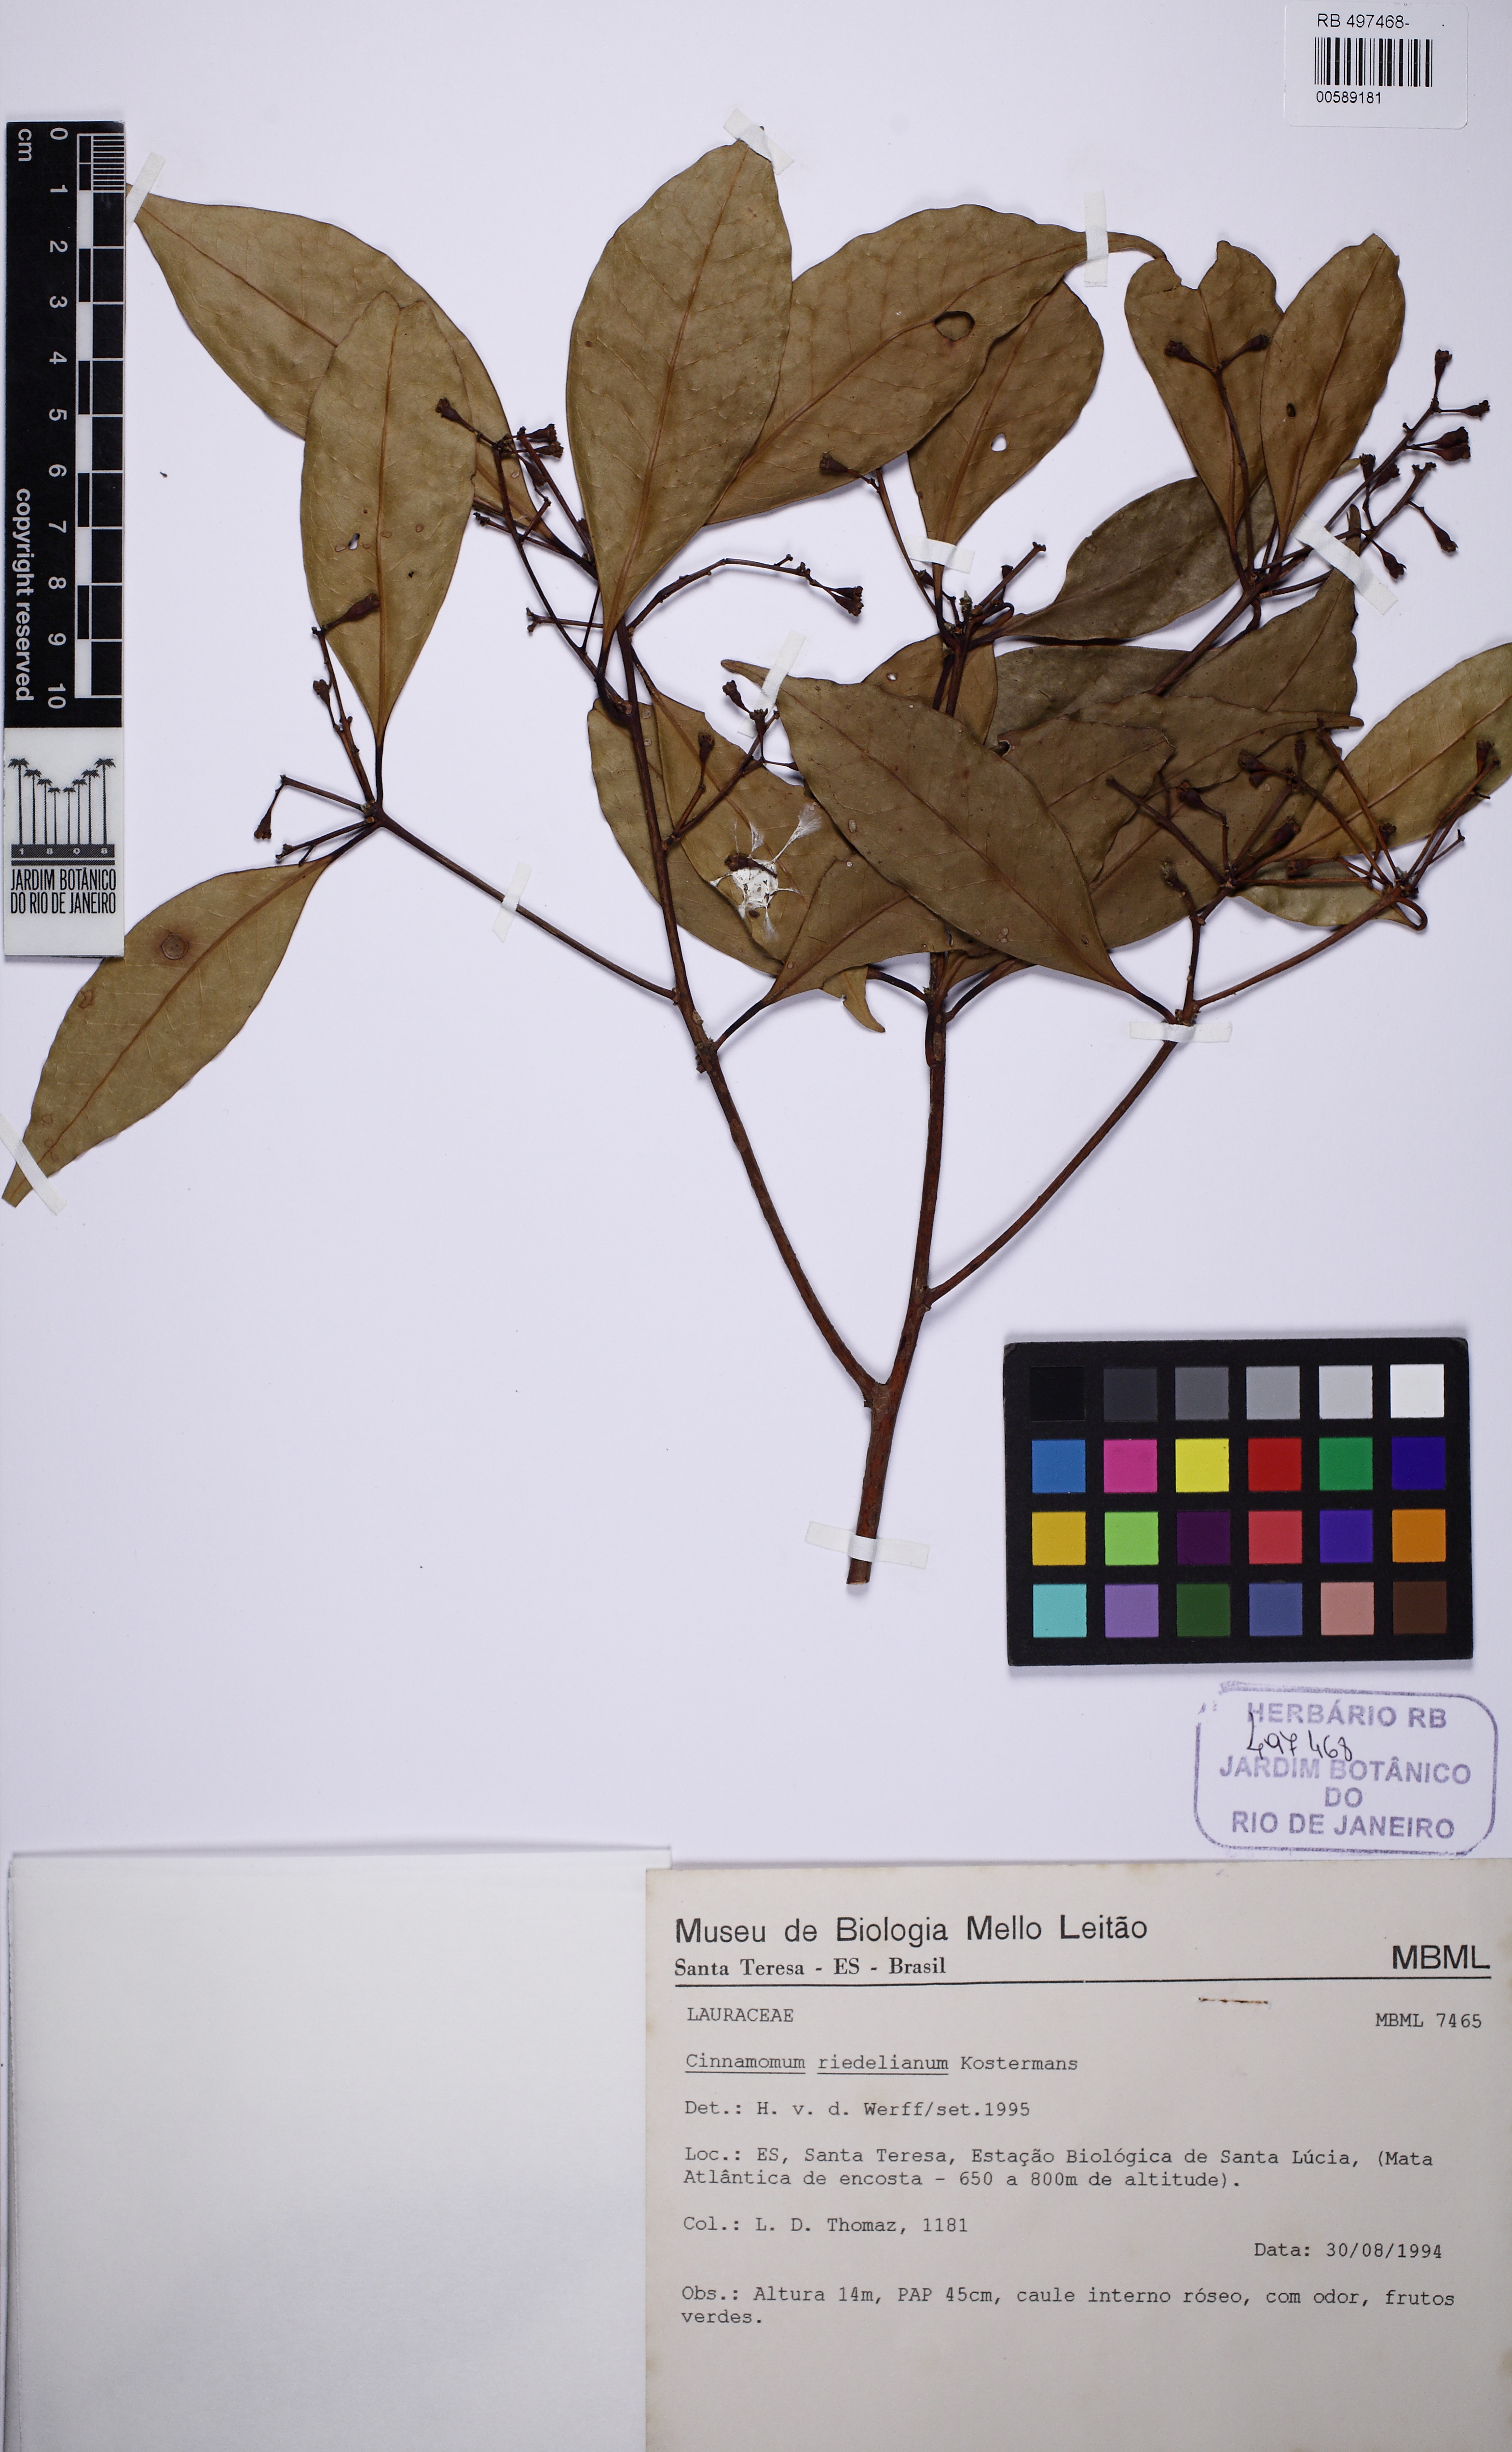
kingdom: Plantae
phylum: Tracheophyta
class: Magnoliopsida
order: Laurales
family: Lauraceae
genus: Ocotea
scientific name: Ocotea mandioccana
